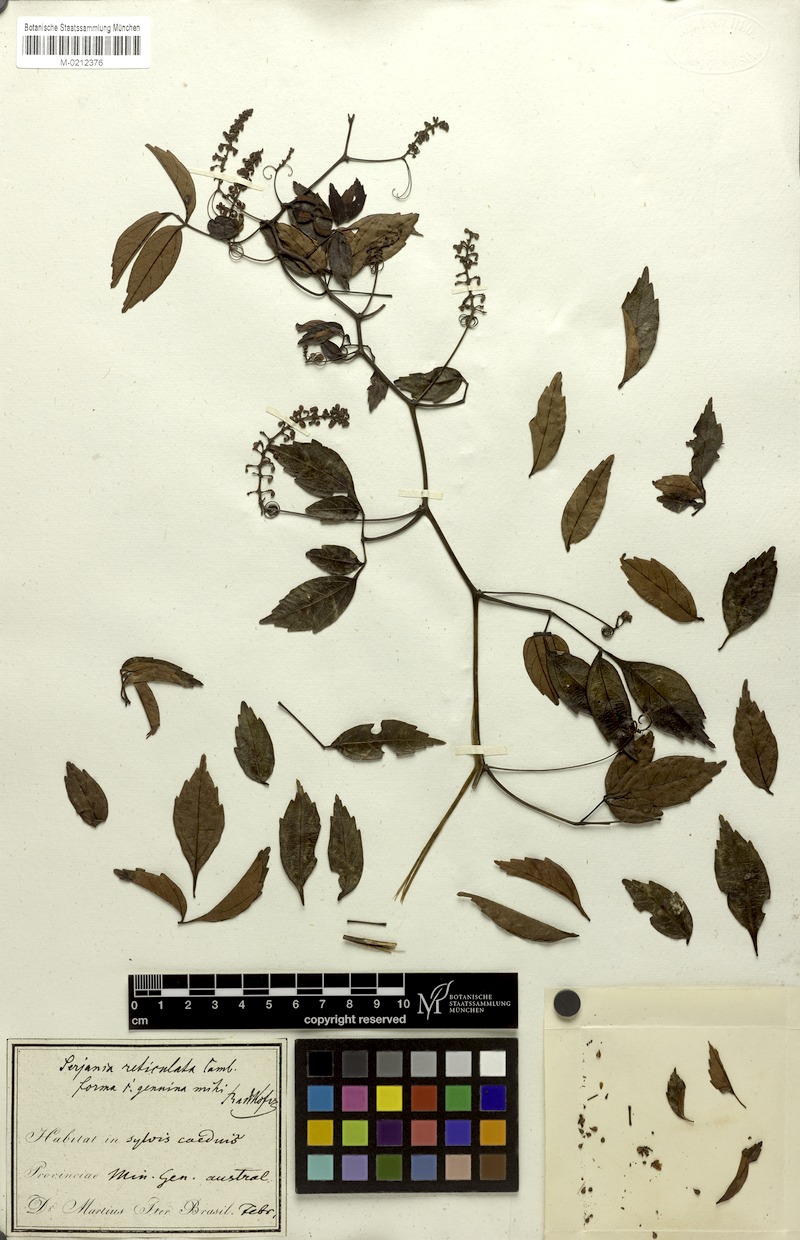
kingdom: Plantae
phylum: Tracheophyta
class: Magnoliopsida
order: Sapindales
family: Sapindaceae
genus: Serjania
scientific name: Serjania reticulata
